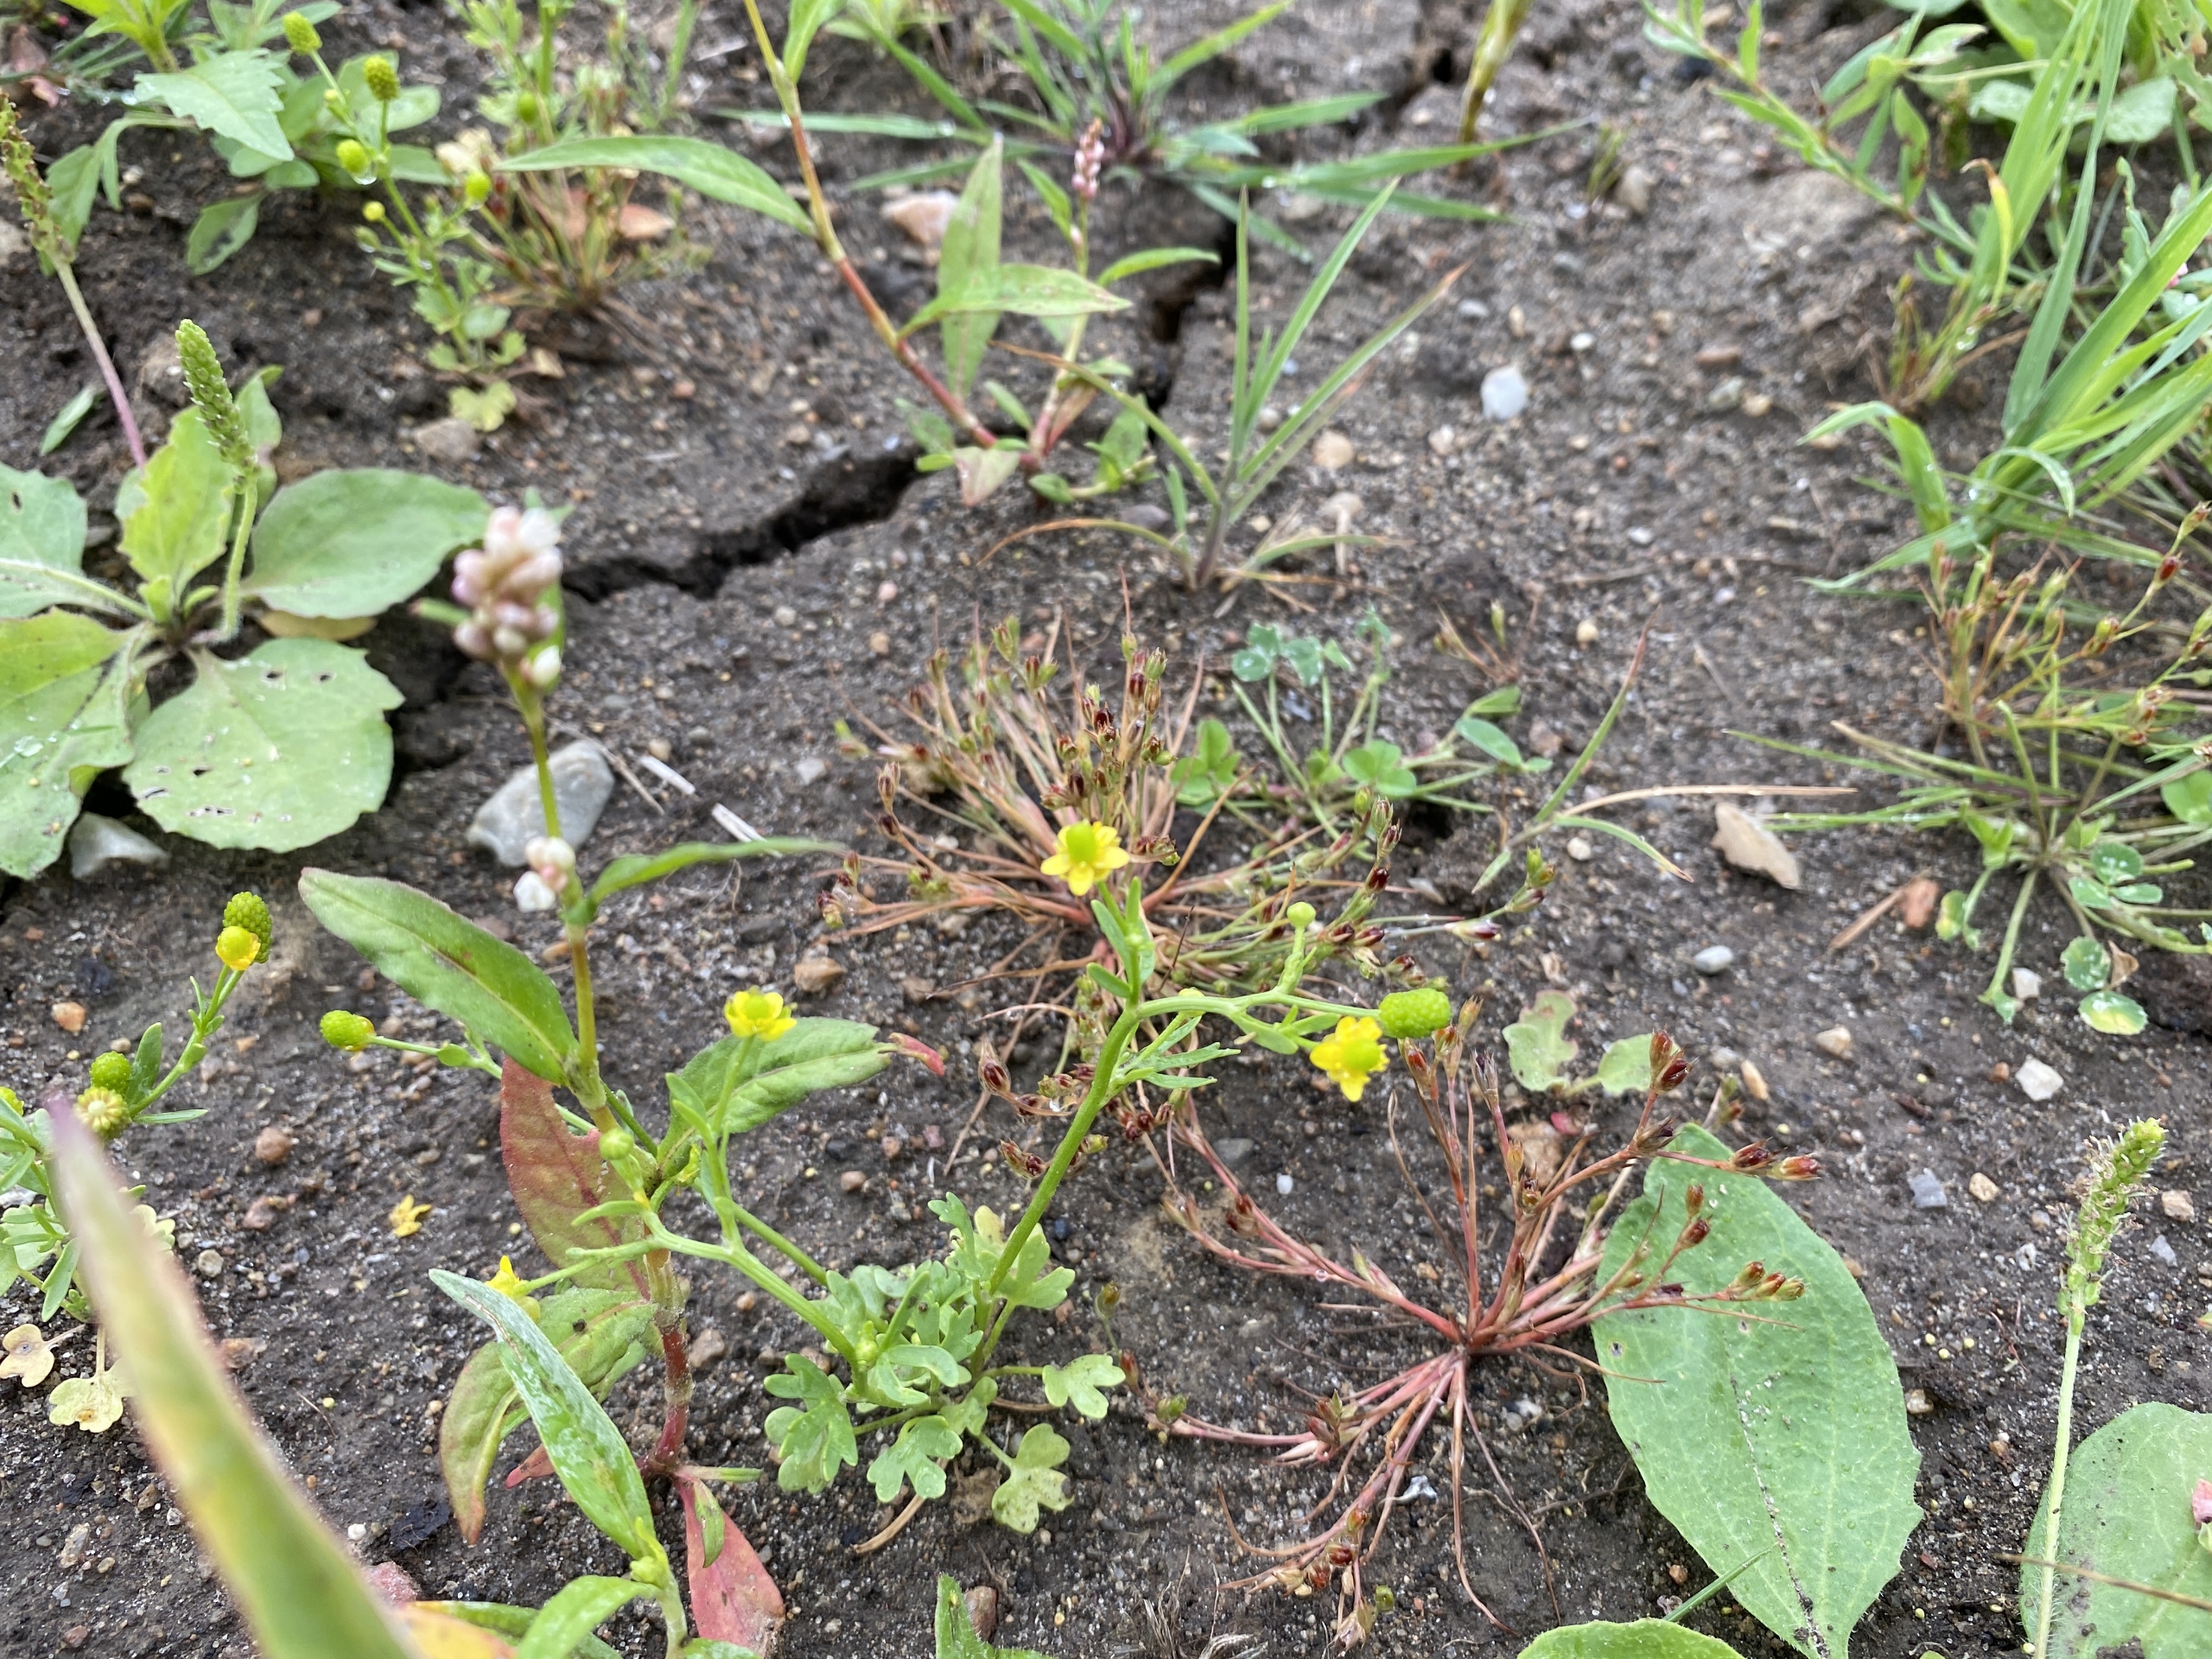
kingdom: Plantae
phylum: Tracheophyta
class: Liliopsida
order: Poales
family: Juncaceae
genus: Juncus
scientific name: Juncus bufonius
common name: Tudse-siv
